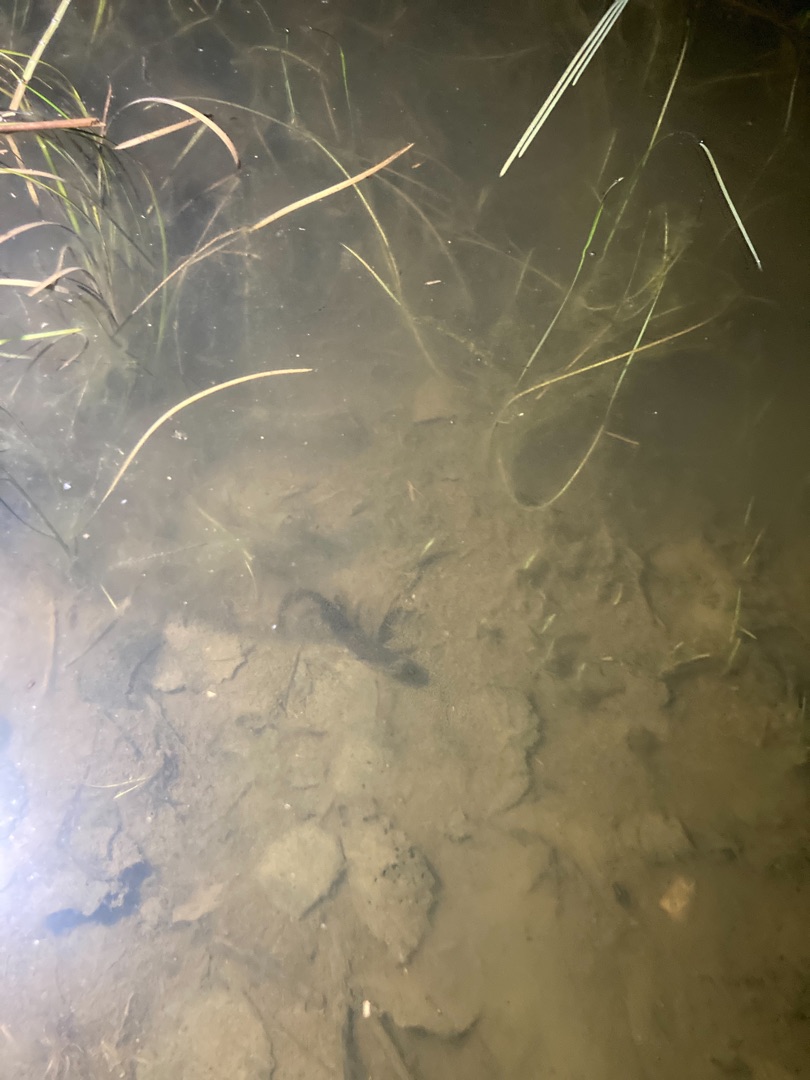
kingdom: Animalia
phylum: Chordata
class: Amphibia
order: Caudata
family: Salamandridae
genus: Triturus
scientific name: Triturus cristatus
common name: Stor vandsalamander
